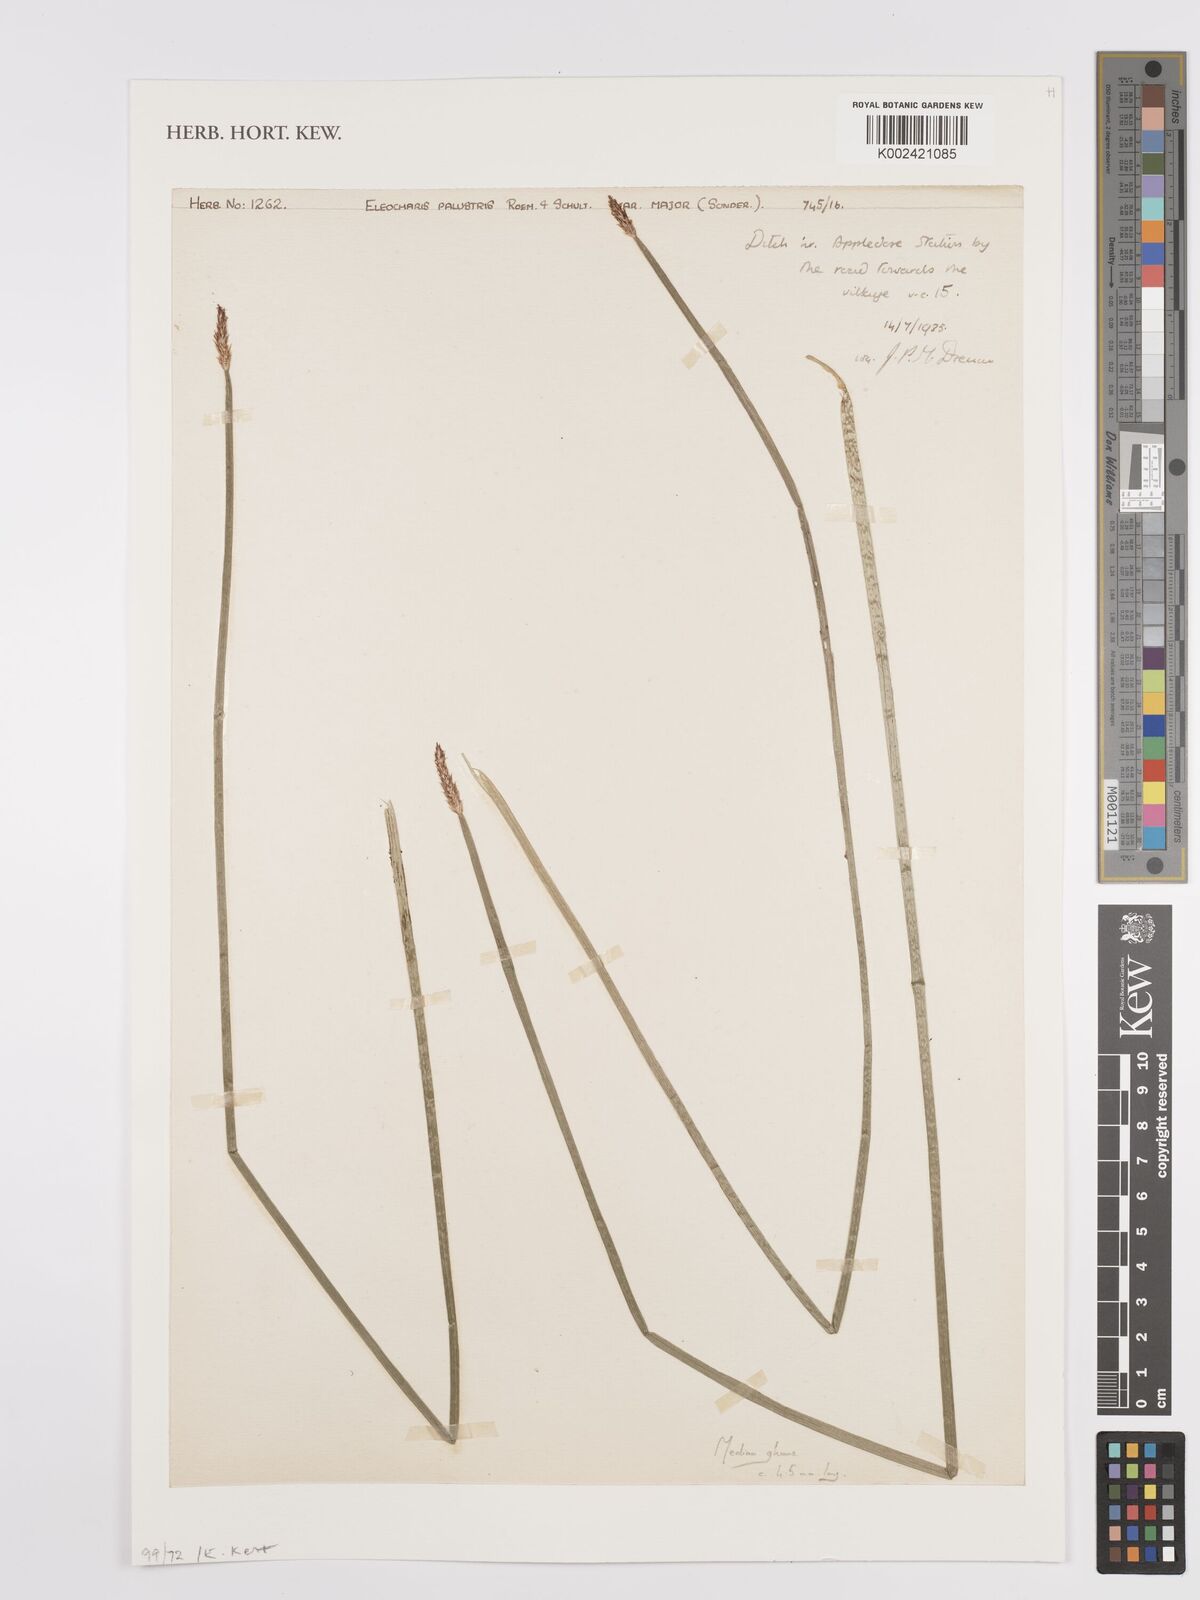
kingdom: Plantae
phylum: Tracheophyta
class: Liliopsida
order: Poales
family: Cyperaceae
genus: Eleocharis
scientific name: Eleocharis palustris
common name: Common spike-rush
